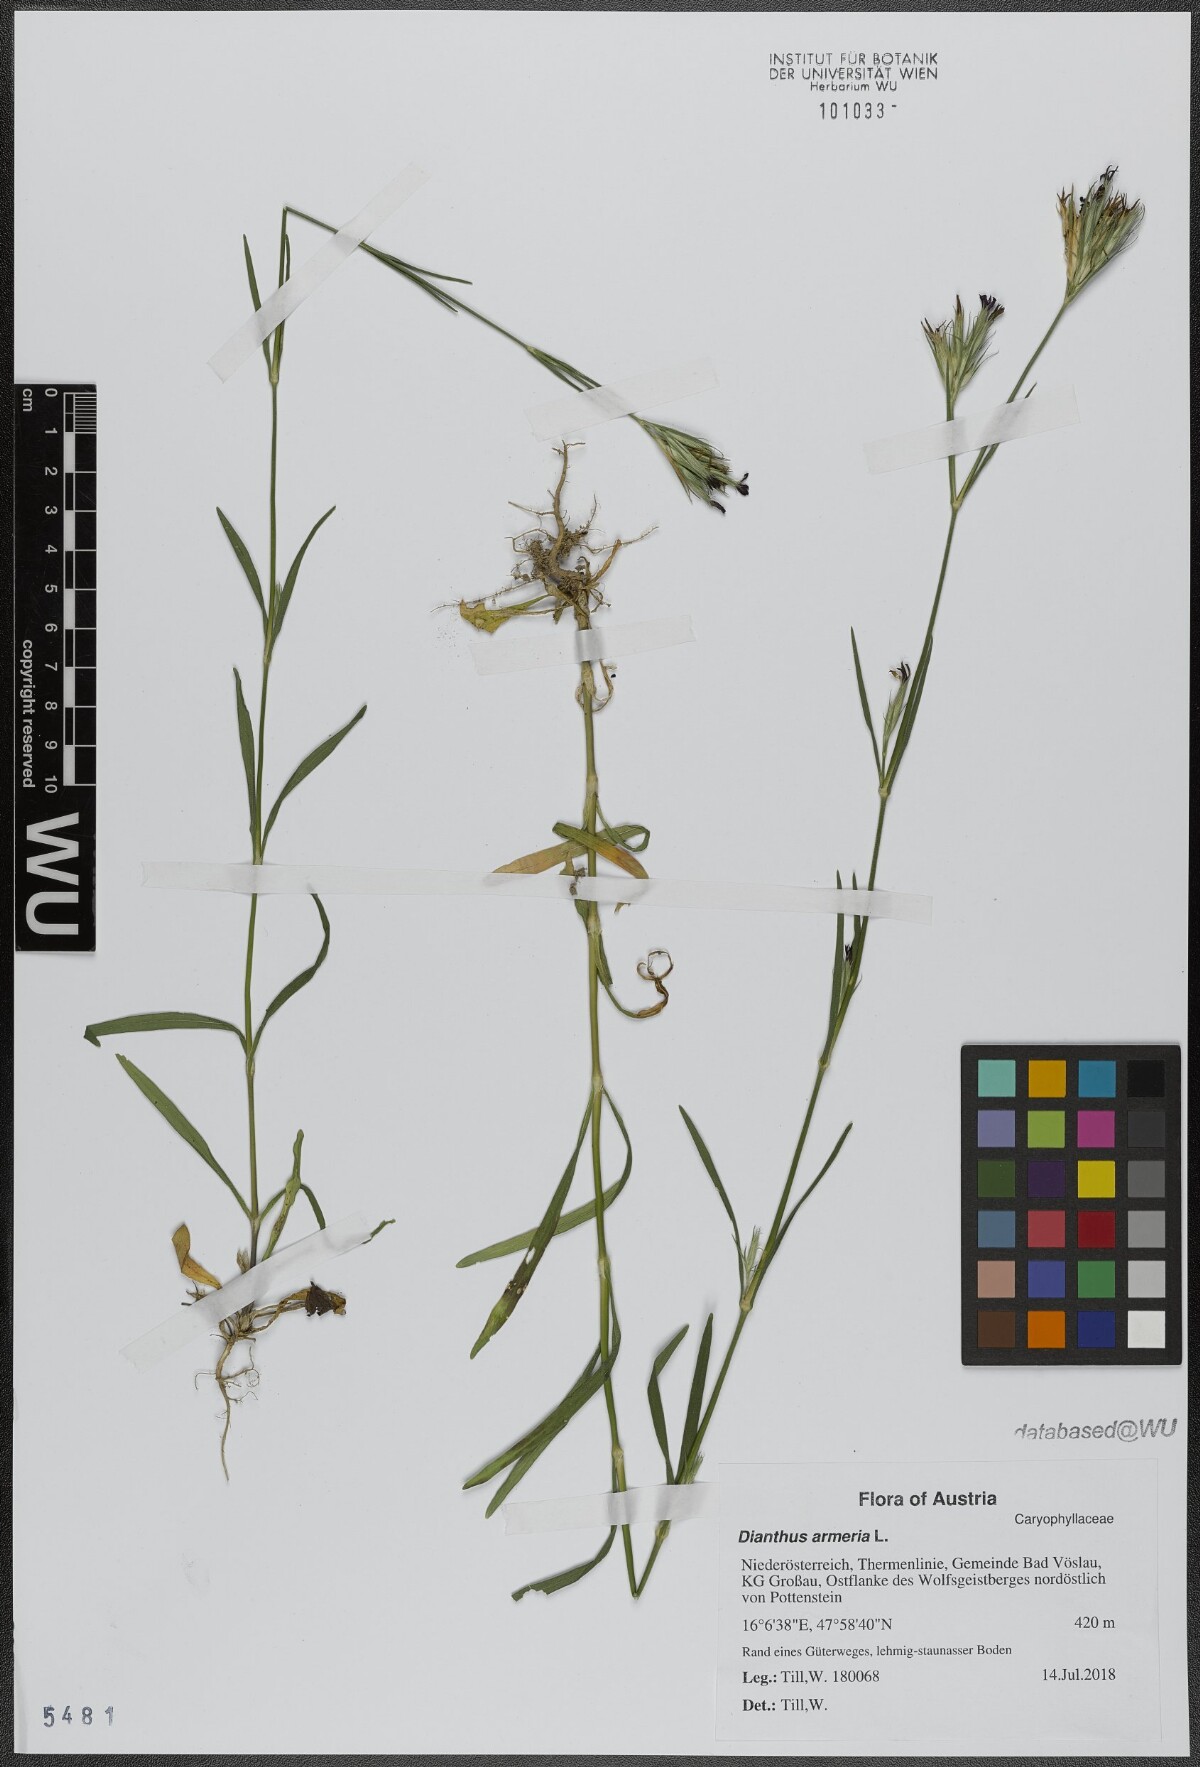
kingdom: Plantae
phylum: Tracheophyta
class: Magnoliopsida
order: Caryophyllales
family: Caryophyllaceae
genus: Dianthus
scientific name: Dianthus armeria
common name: Deptford pink
